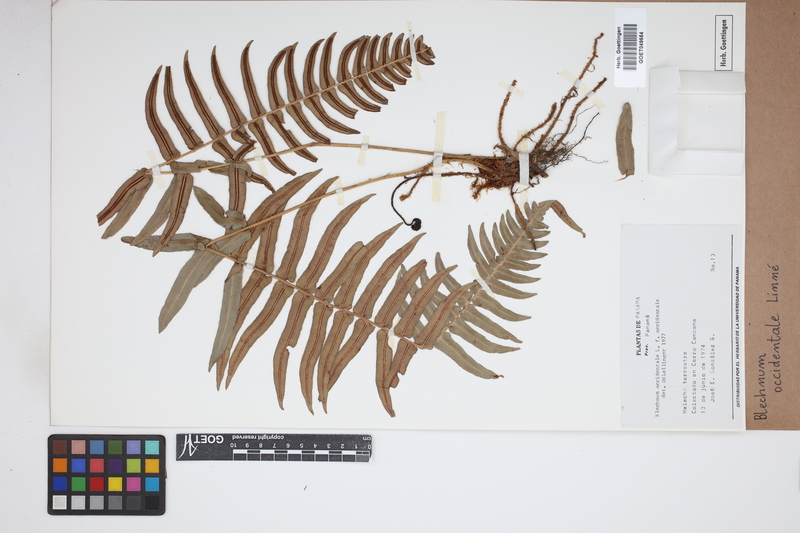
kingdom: Plantae
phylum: Tracheophyta
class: Polypodiopsida
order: Polypodiales
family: Blechnaceae
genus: Blechnum
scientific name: Blechnum occidentale
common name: Hammock fern
